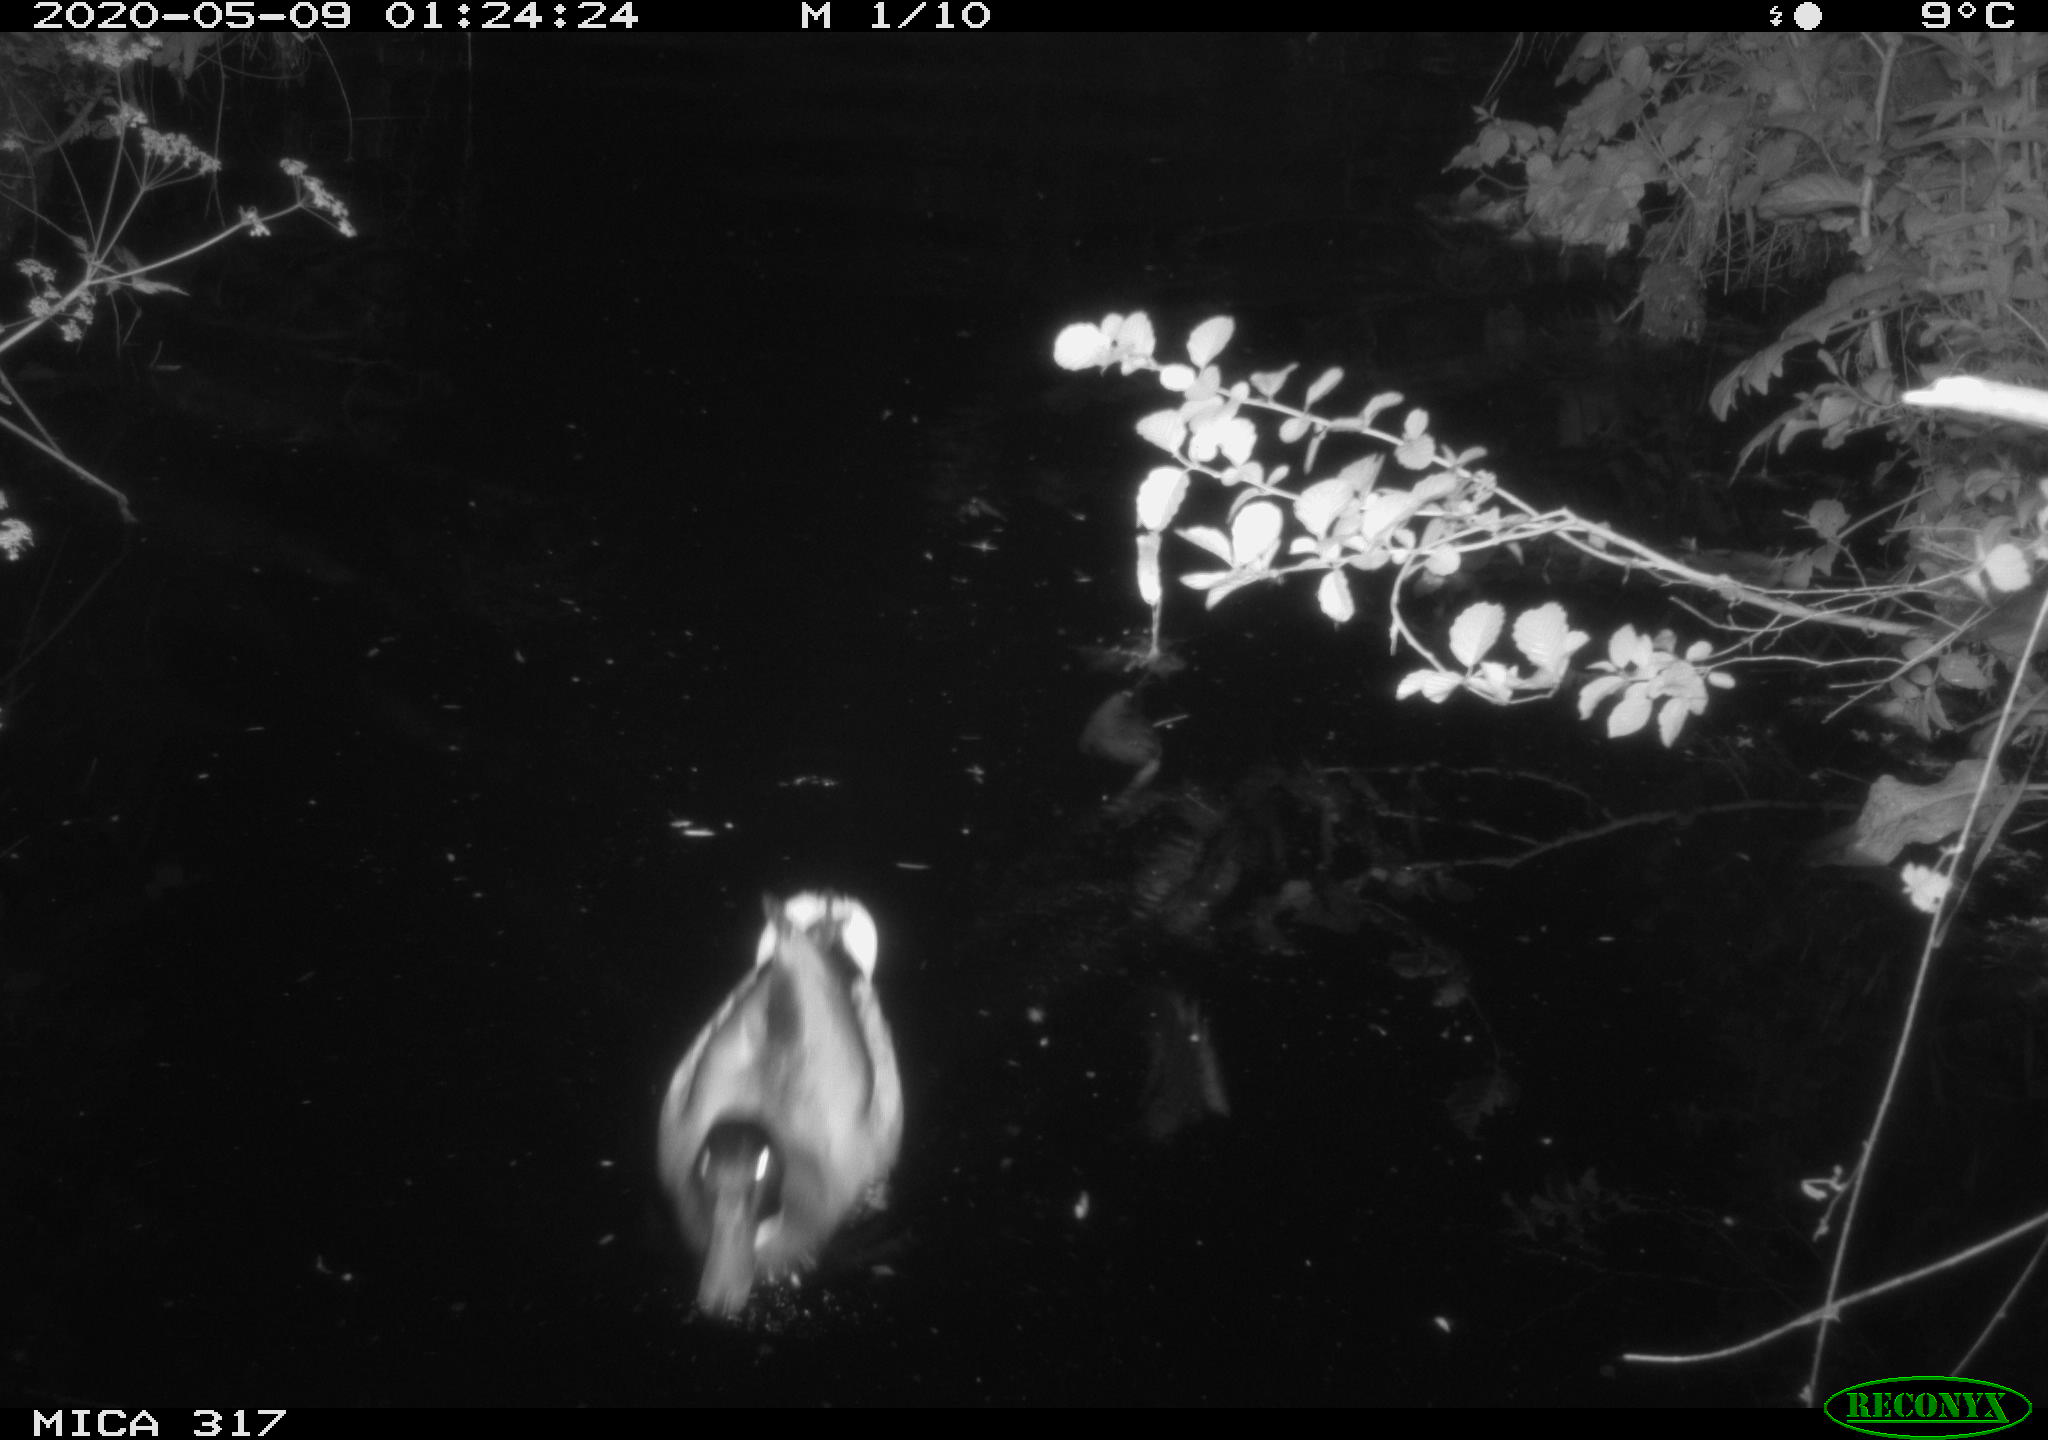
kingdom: Animalia
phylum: Chordata
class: Aves
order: Anseriformes
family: Anatidae
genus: Anas
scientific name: Anas platyrhynchos
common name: Mallard
